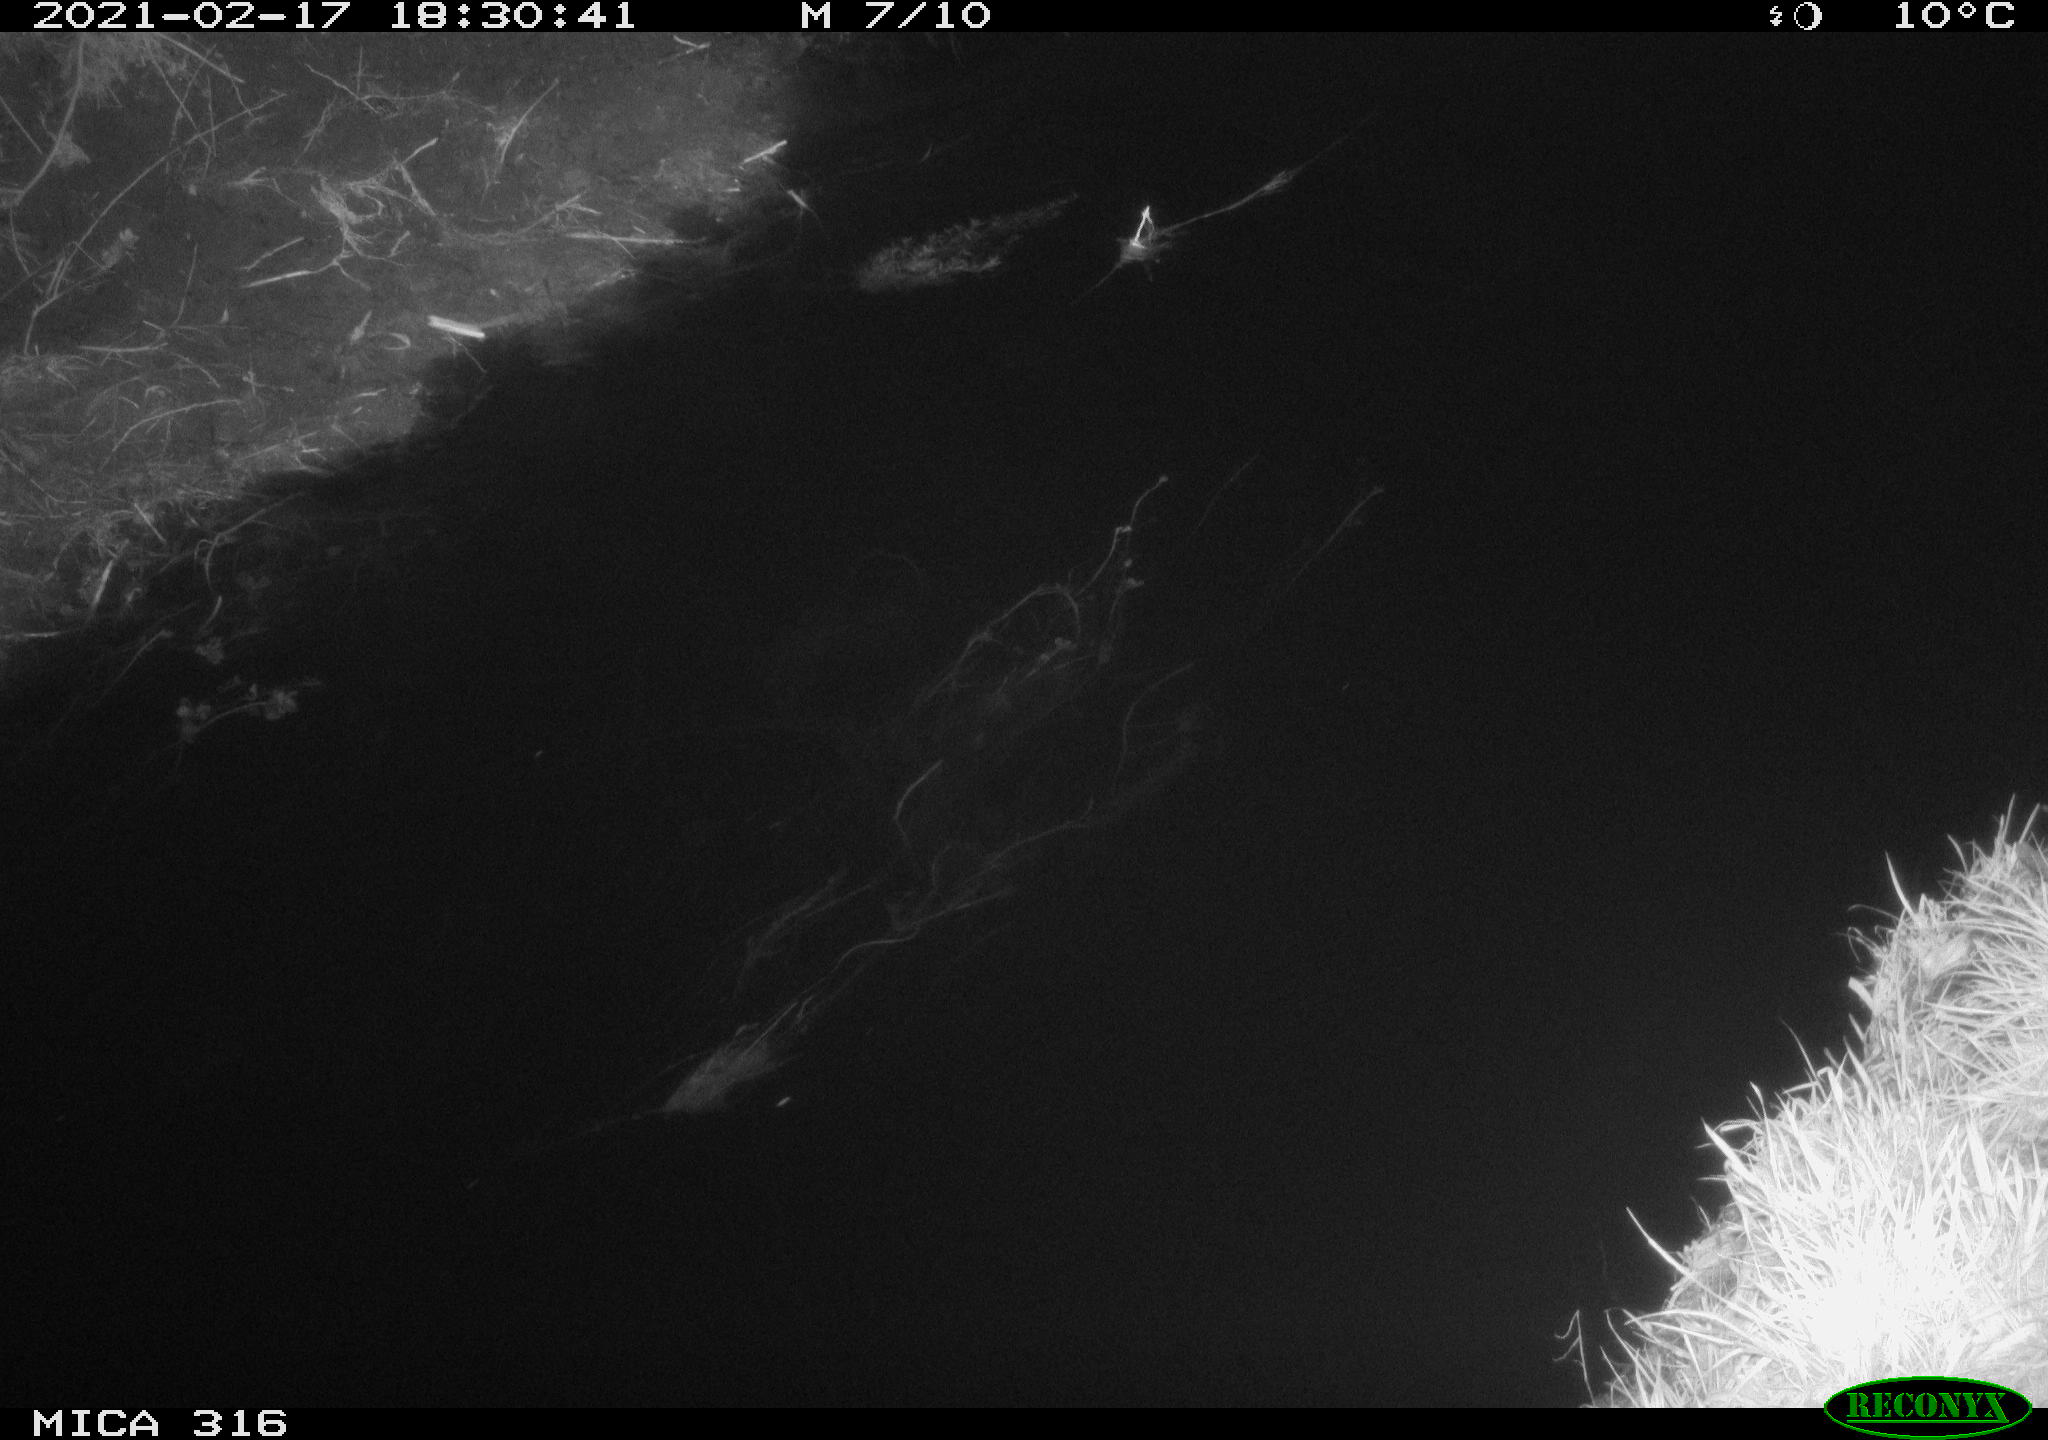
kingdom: Animalia
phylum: Chordata
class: Aves
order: Podicipediformes
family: Podicipedidae
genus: Tachybaptus
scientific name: Tachybaptus ruficollis
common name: Little grebe
